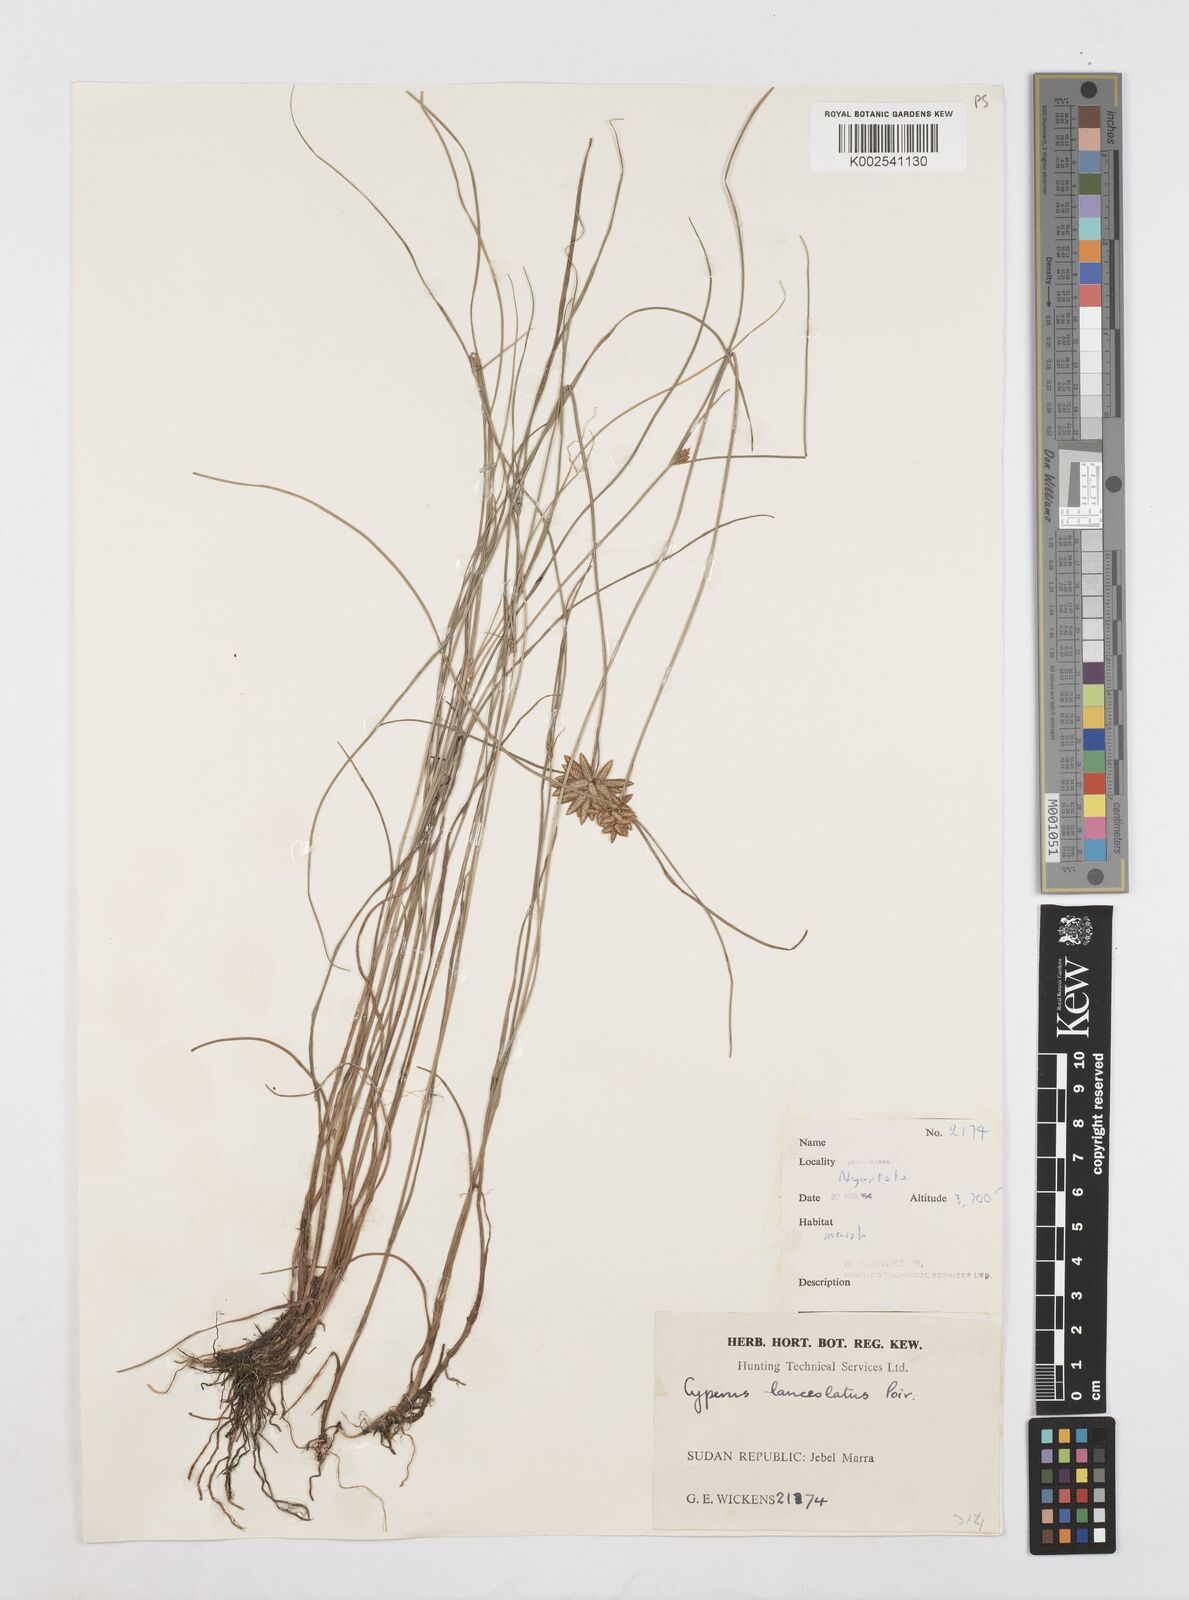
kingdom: Plantae
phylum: Tracheophyta
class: Liliopsida
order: Poales
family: Cyperaceae
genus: Cyperus
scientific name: Cyperus lanceolatus
